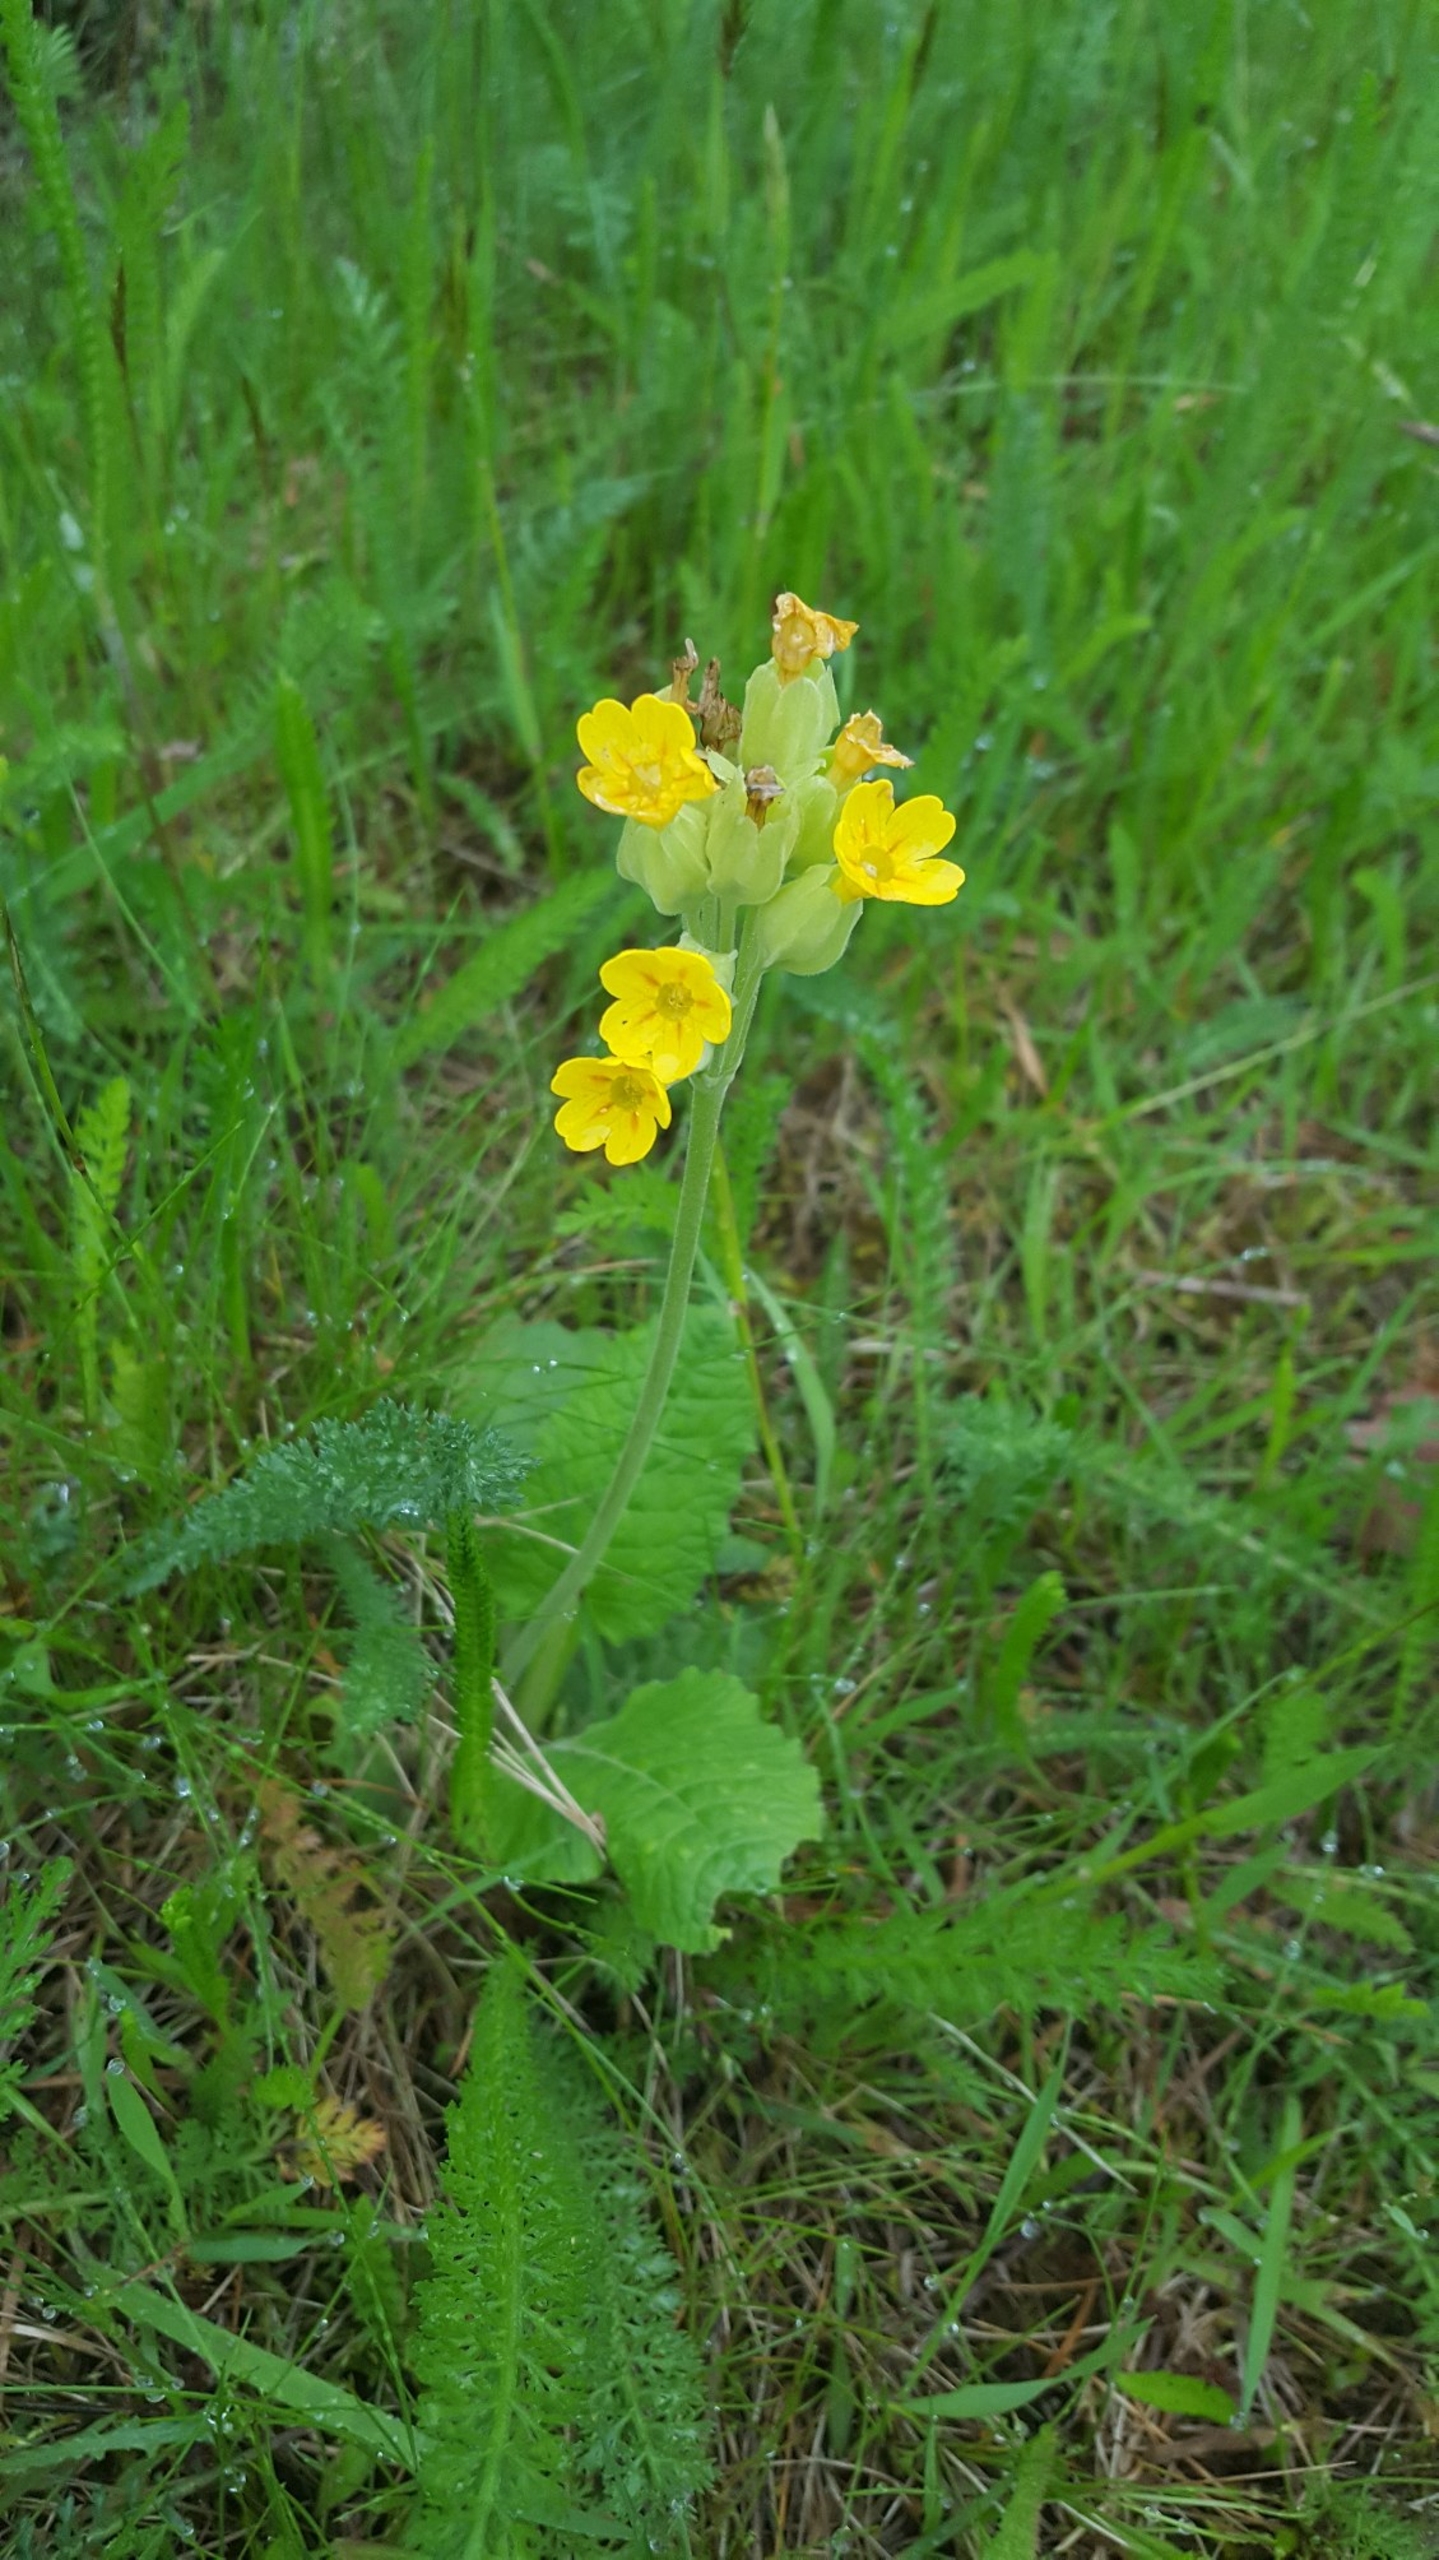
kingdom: Plantae
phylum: Tracheophyta
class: Magnoliopsida
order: Ericales
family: Primulaceae
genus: Primula
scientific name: Primula veris
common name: Hulkravet kodriver
